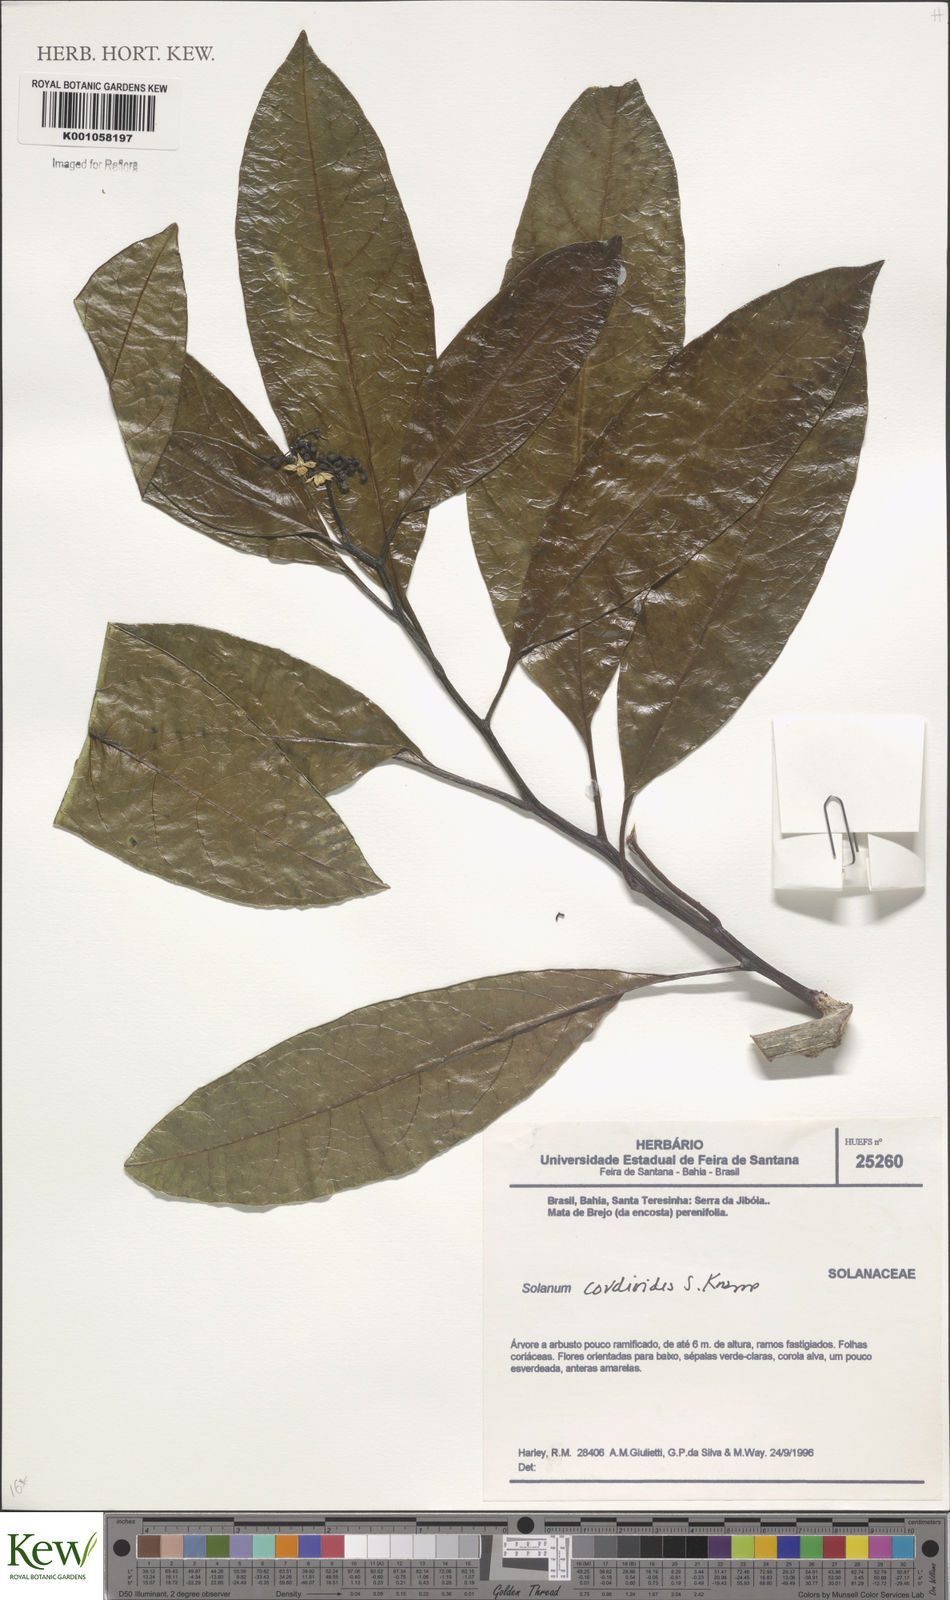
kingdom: Plantae
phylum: Tracheophyta
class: Magnoliopsida
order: Solanales
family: Solanaceae
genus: Solanum
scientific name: Solanum cordioides
